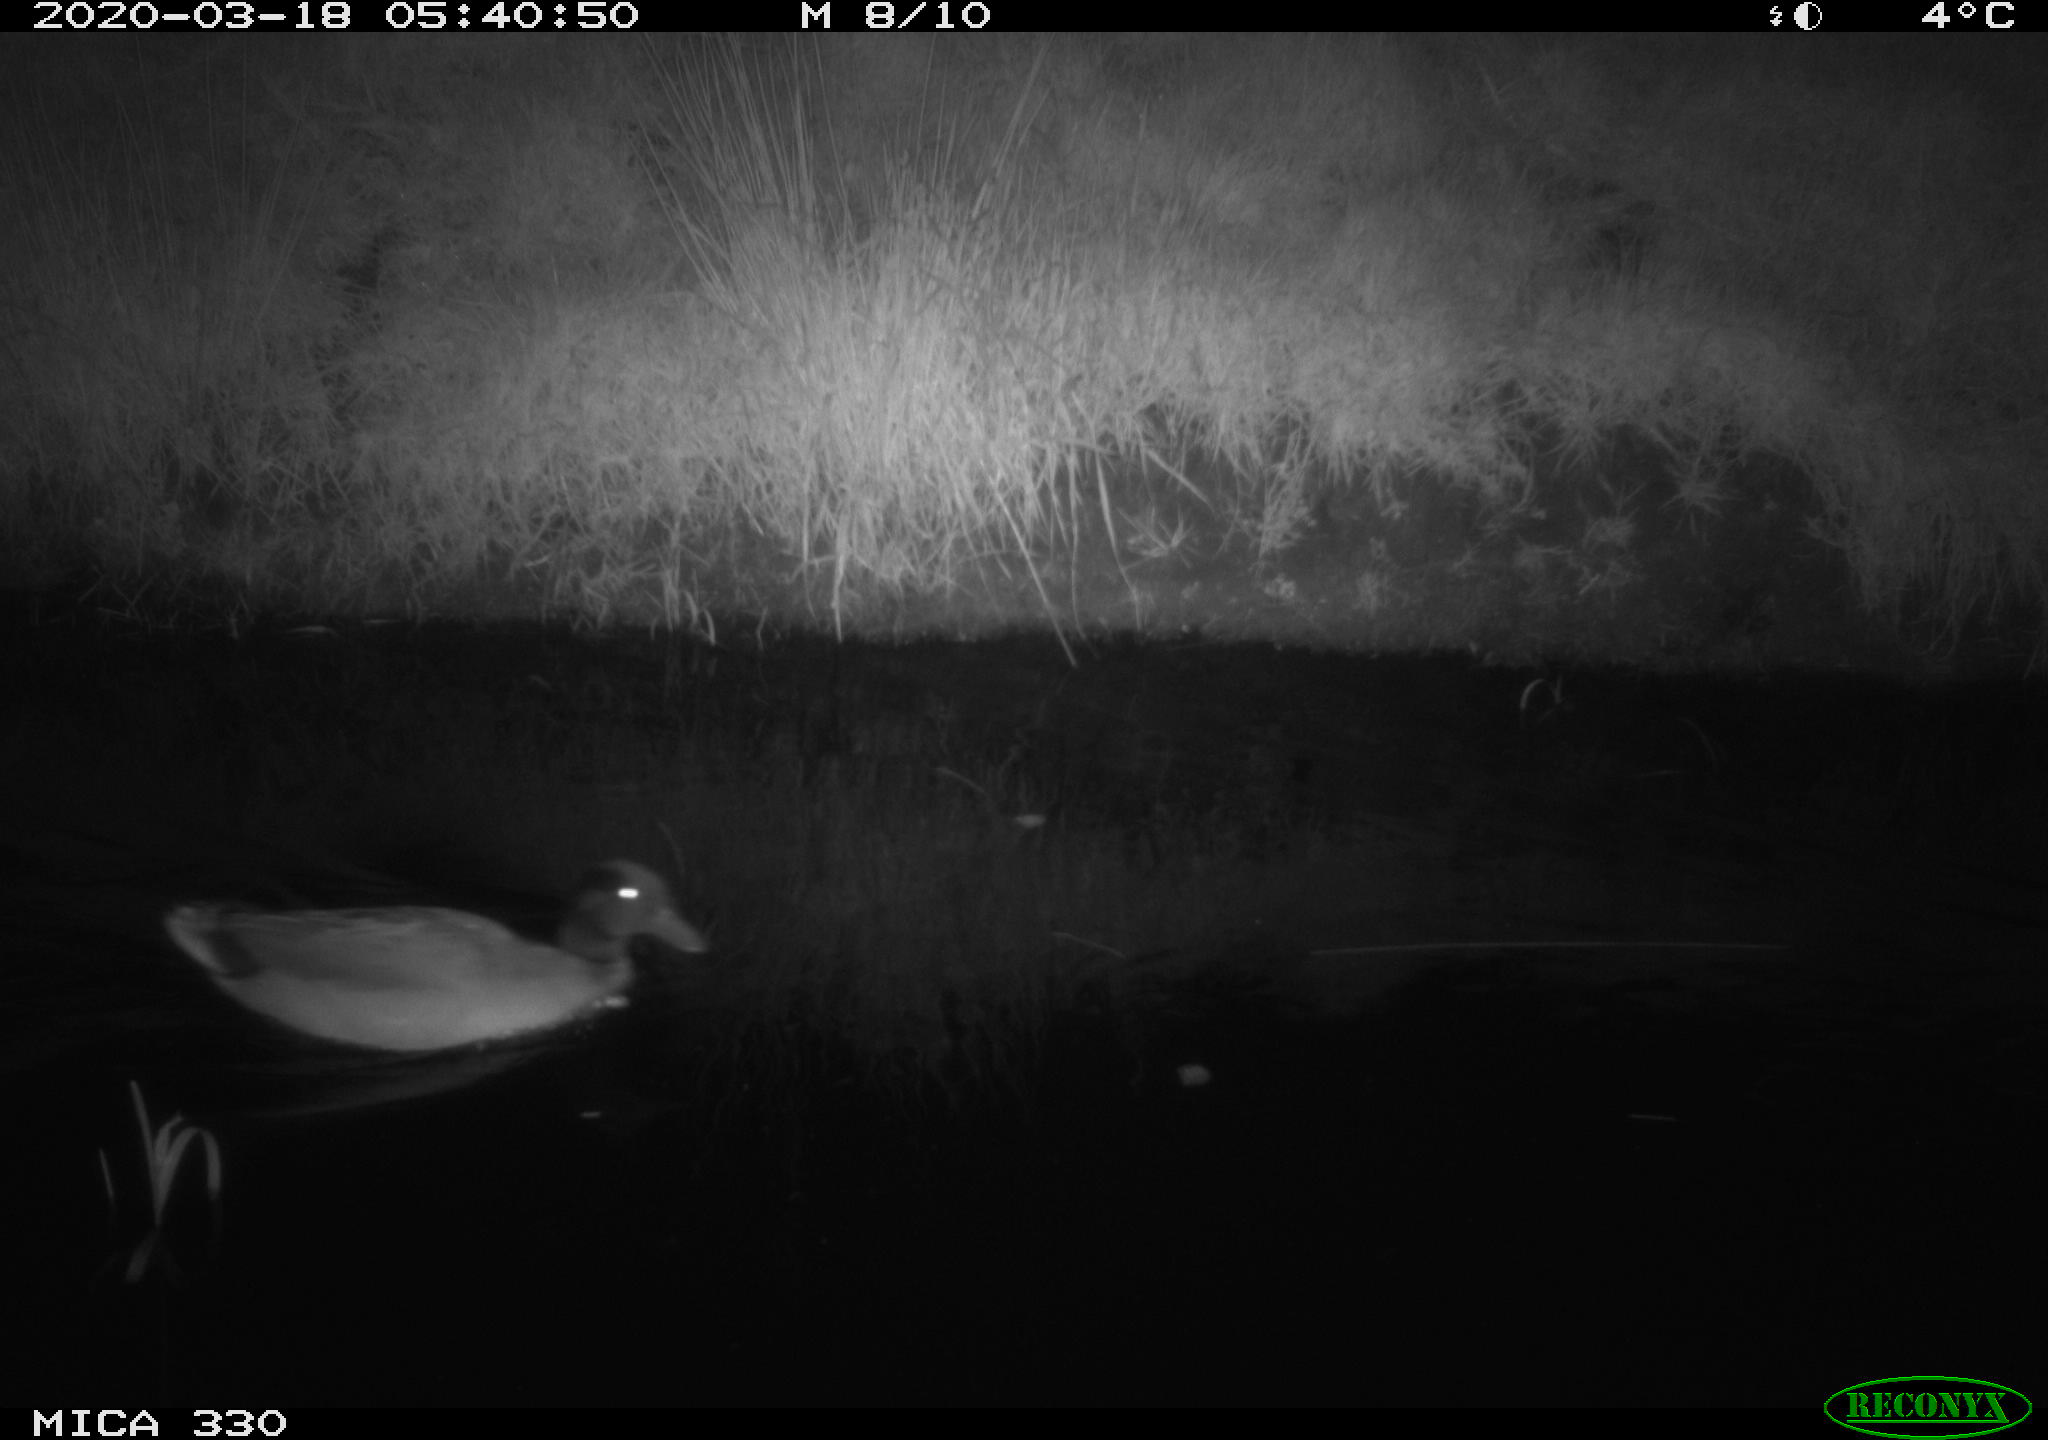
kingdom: Animalia
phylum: Chordata
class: Aves
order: Anseriformes
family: Anatidae
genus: Anas
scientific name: Anas platyrhynchos
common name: Mallard
